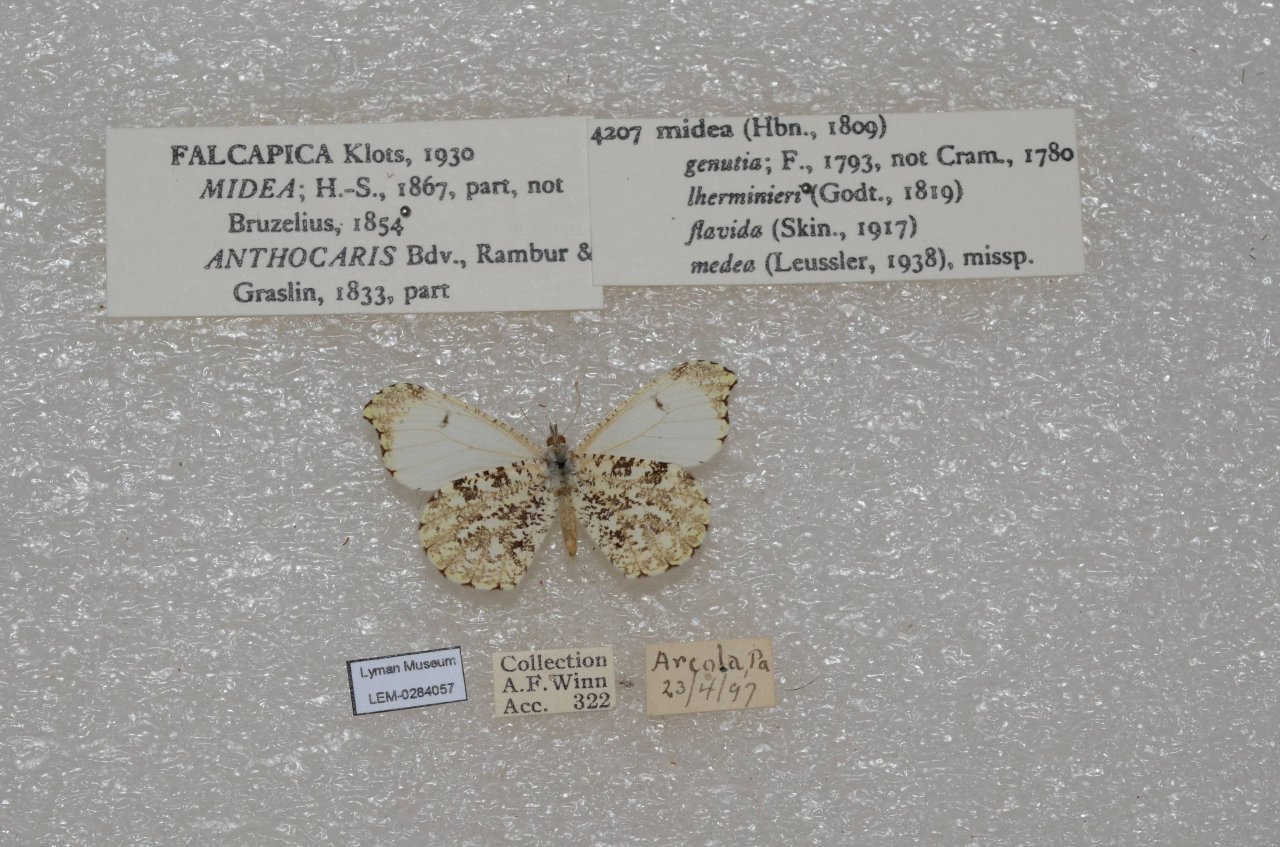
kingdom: Animalia
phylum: Arthropoda
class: Insecta
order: Lepidoptera
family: Pieridae
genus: Anthocharis
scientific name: Anthocharis midea
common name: Falcate Orangetip
